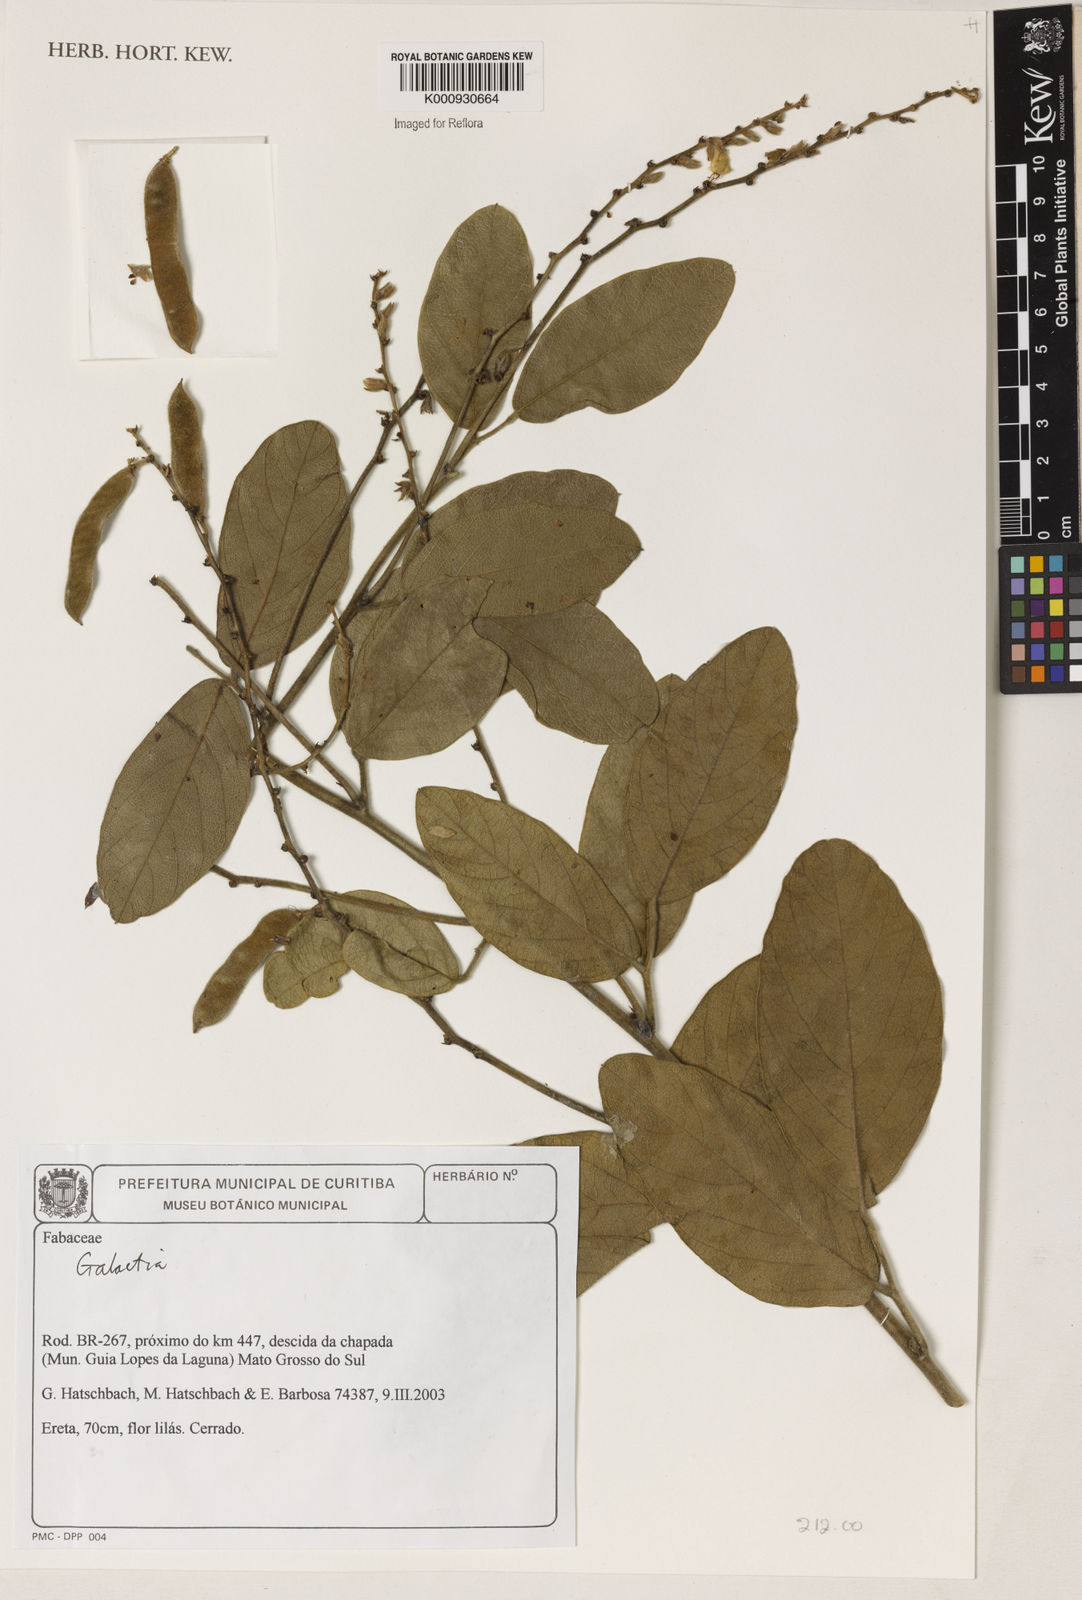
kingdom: Plantae
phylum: Tracheophyta
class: Magnoliopsida
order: Fabales
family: Fabaceae
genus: Galactia
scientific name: Galactia
